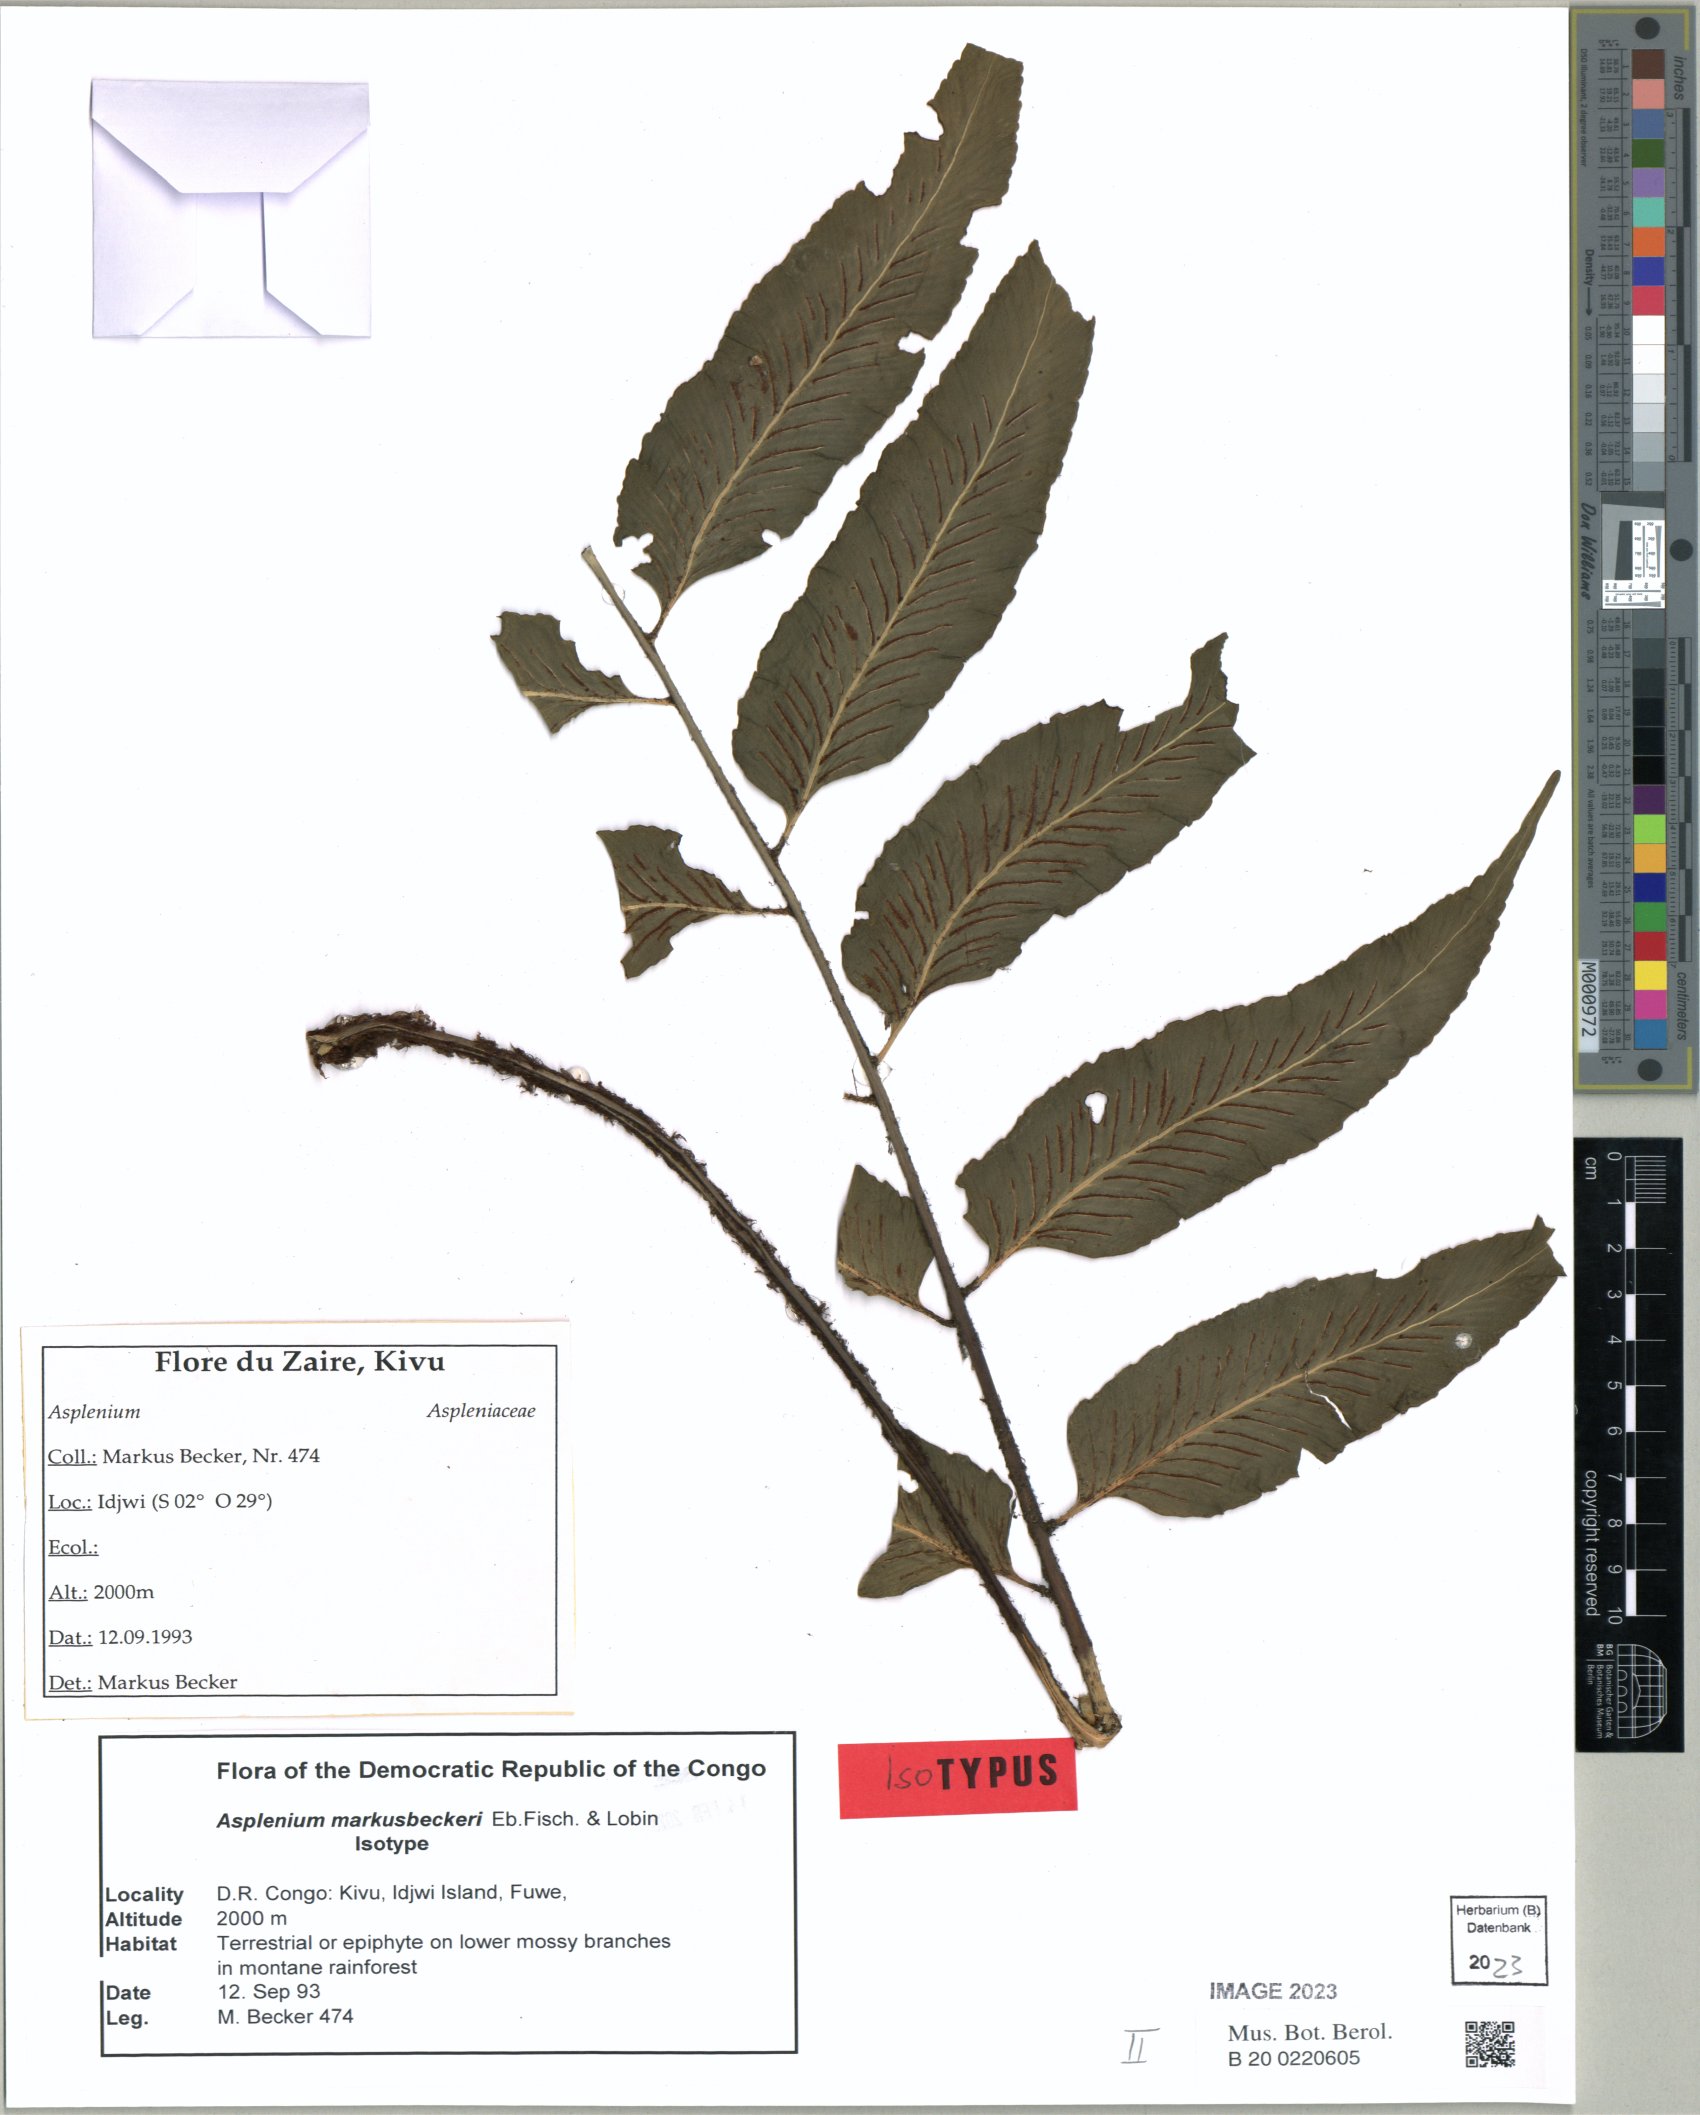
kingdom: Plantae
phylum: Tracheophyta
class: Polypodiopsida
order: Polypodiales
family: Aspleniaceae
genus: Asplenium
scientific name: Asplenium
